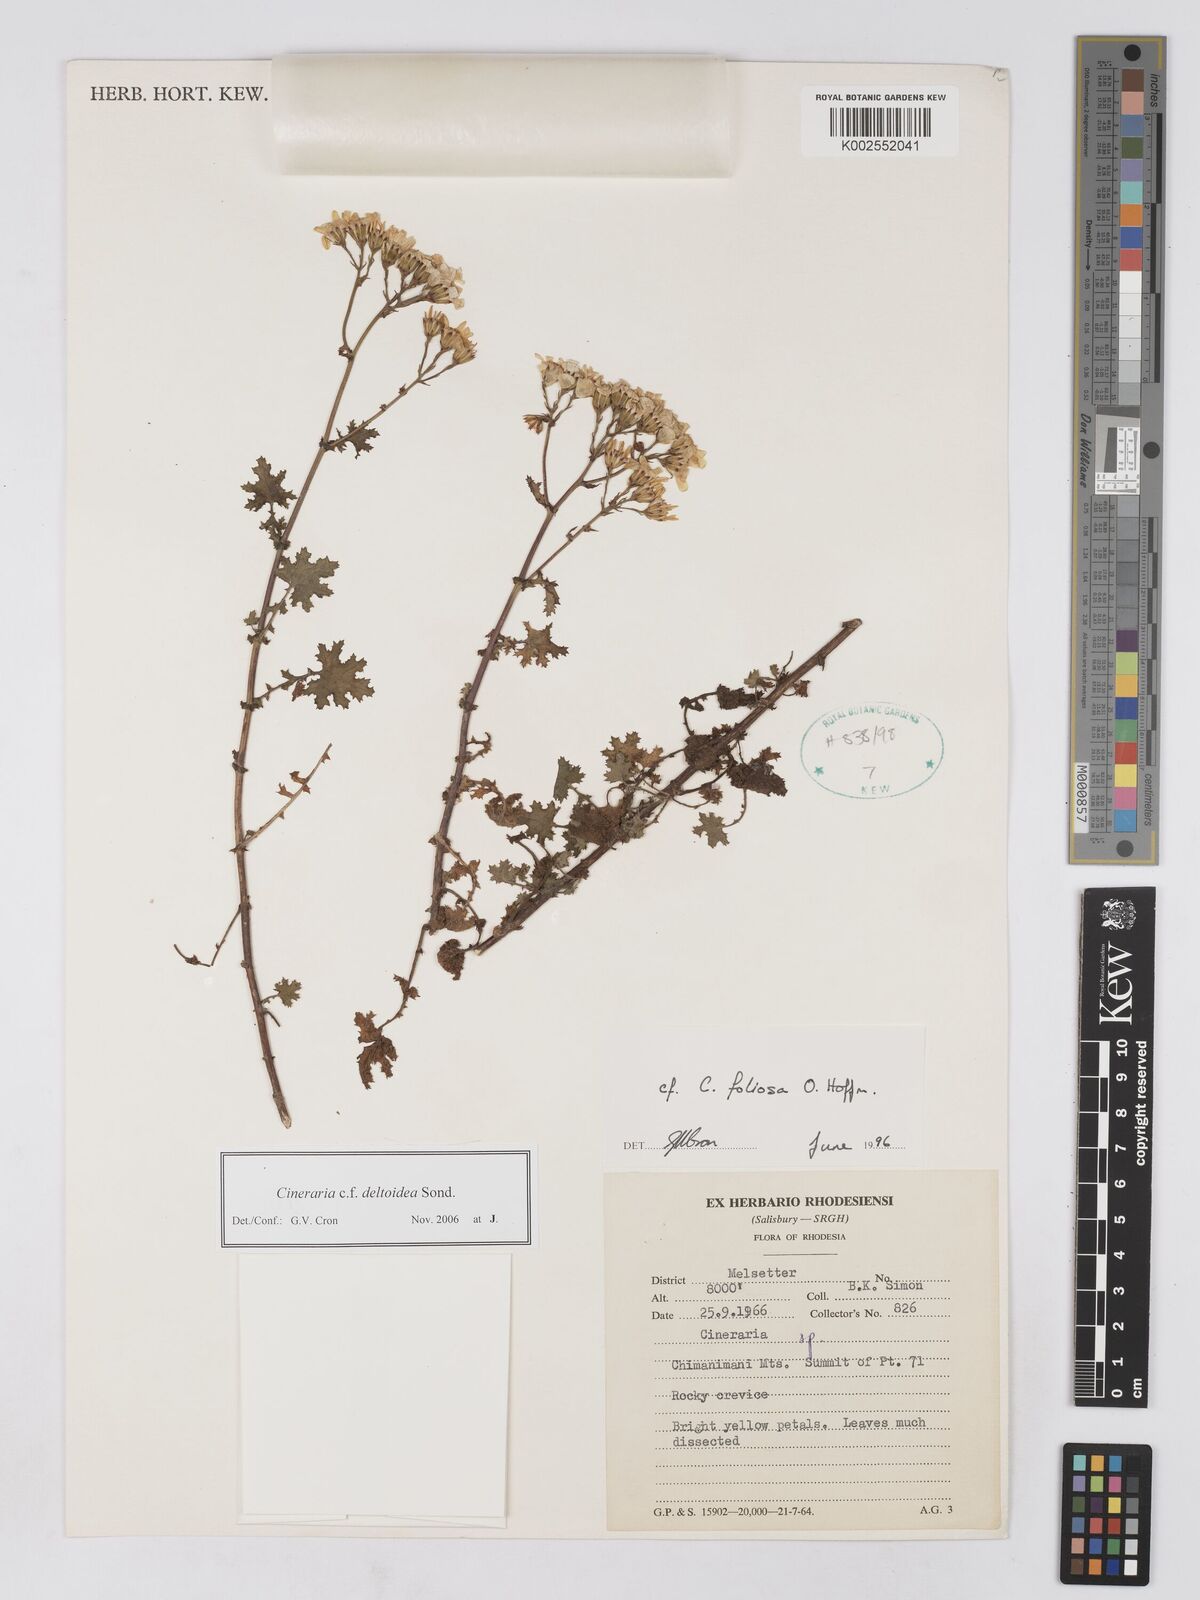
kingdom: Plantae
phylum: Tracheophyta
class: Magnoliopsida
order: Asterales
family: Asteraceae
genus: Cineraria
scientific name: Cineraria deltoidea
